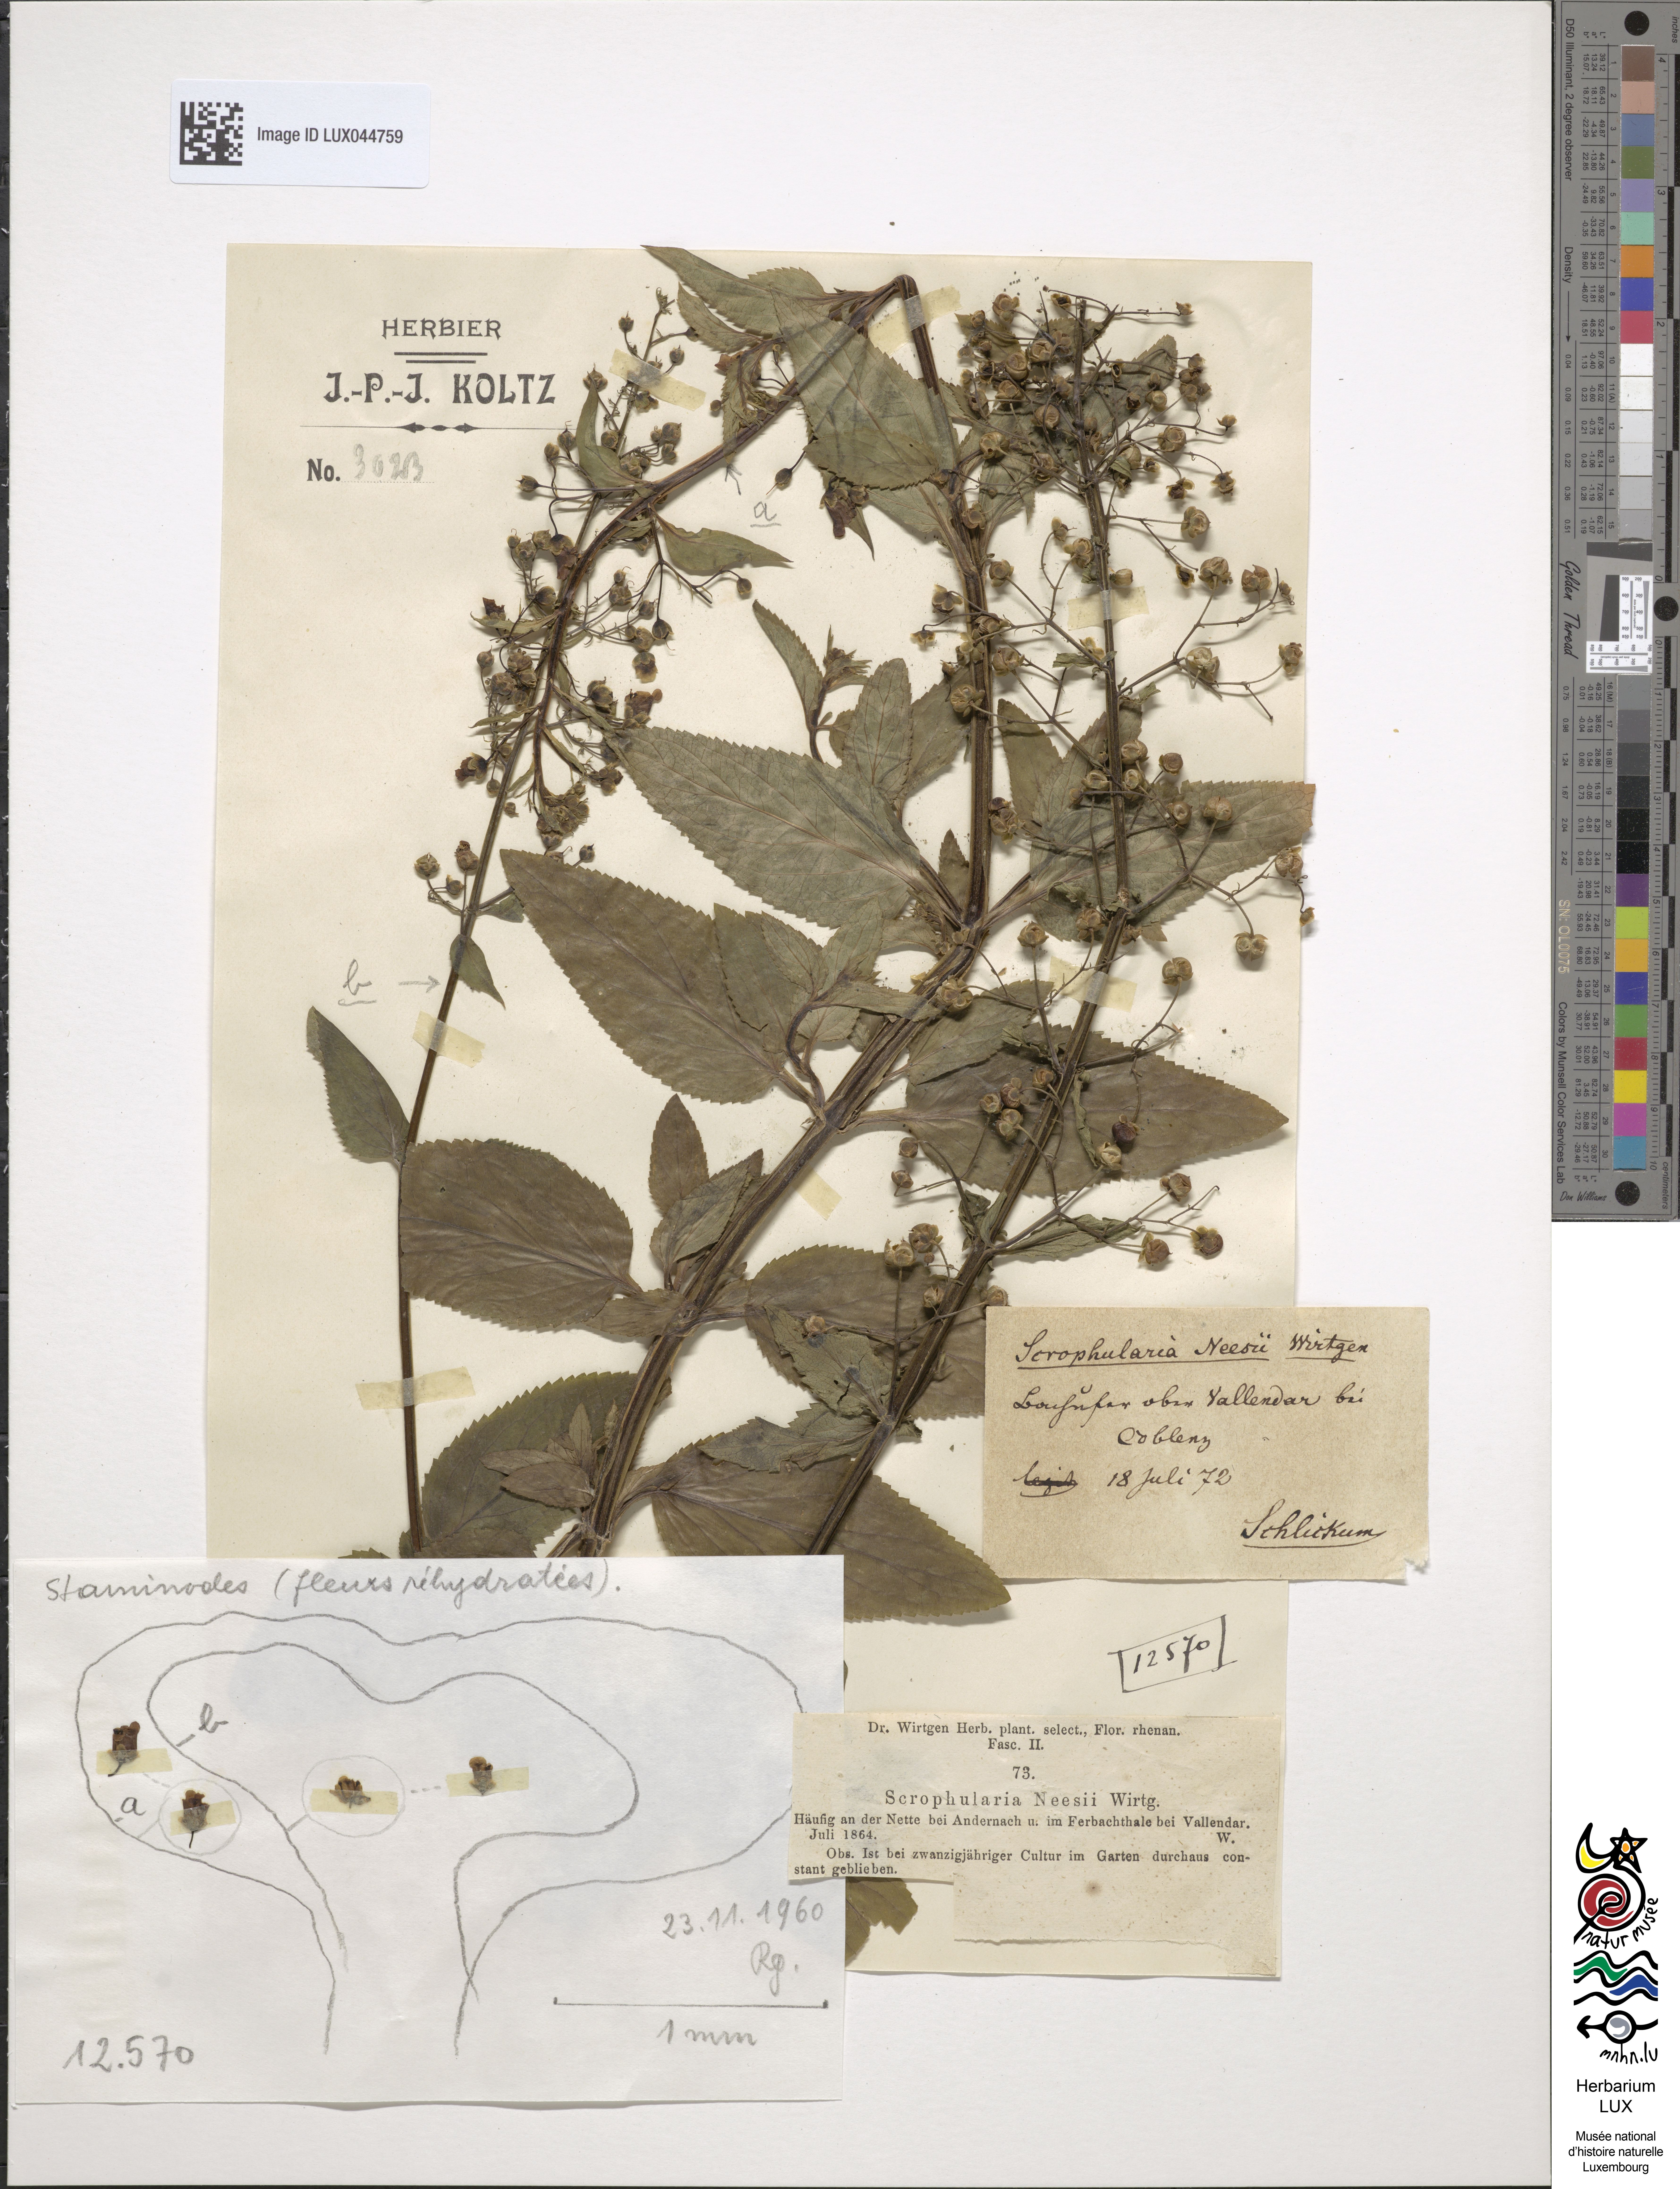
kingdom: Plantae
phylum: Tracheophyta
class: Magnoliopsida
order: Lamiales
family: Scrophulariaceae
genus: Scrophularia
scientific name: Scrophularia neesii
